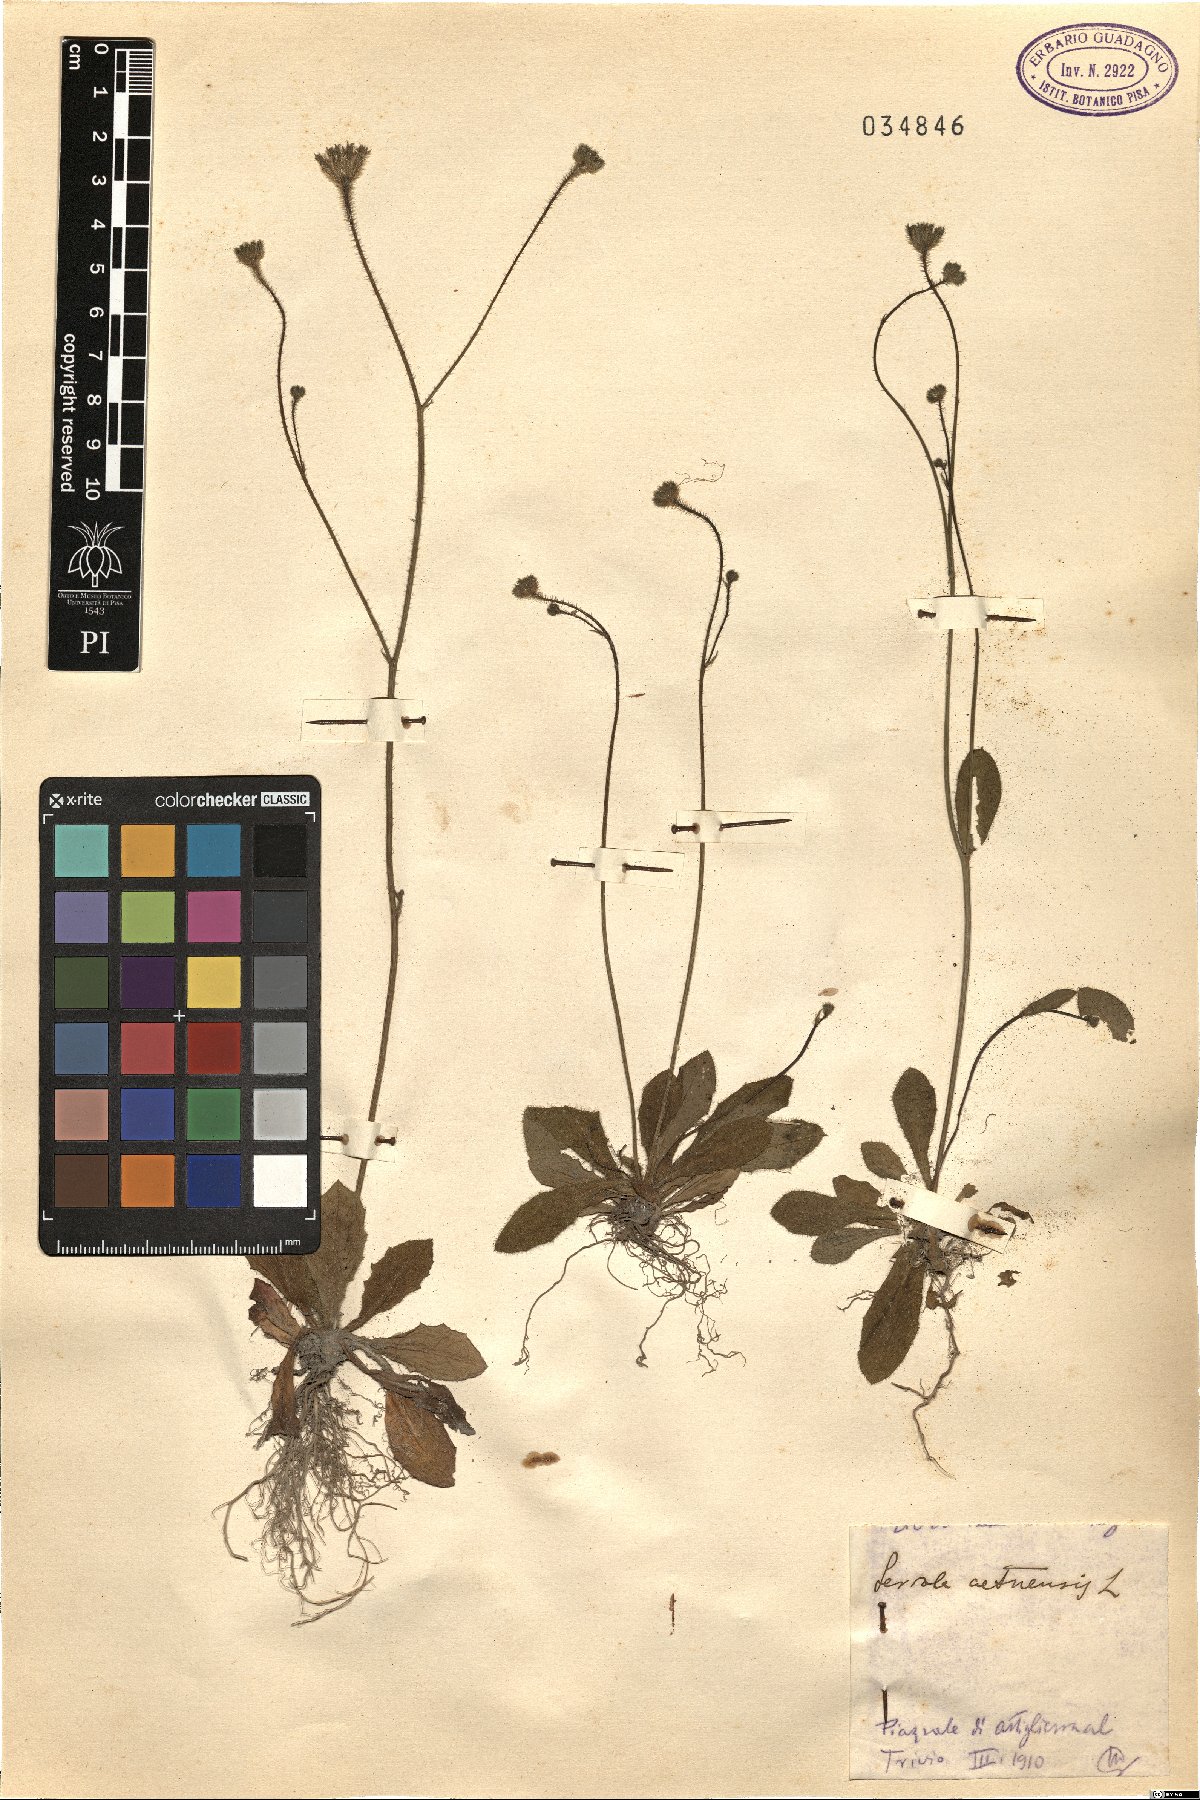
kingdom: Plantae
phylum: Tracheophyta
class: Magnoliopsida
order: Asterales
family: Asteraceae
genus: Achyrophorus
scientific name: Achyrophorus valdesii
